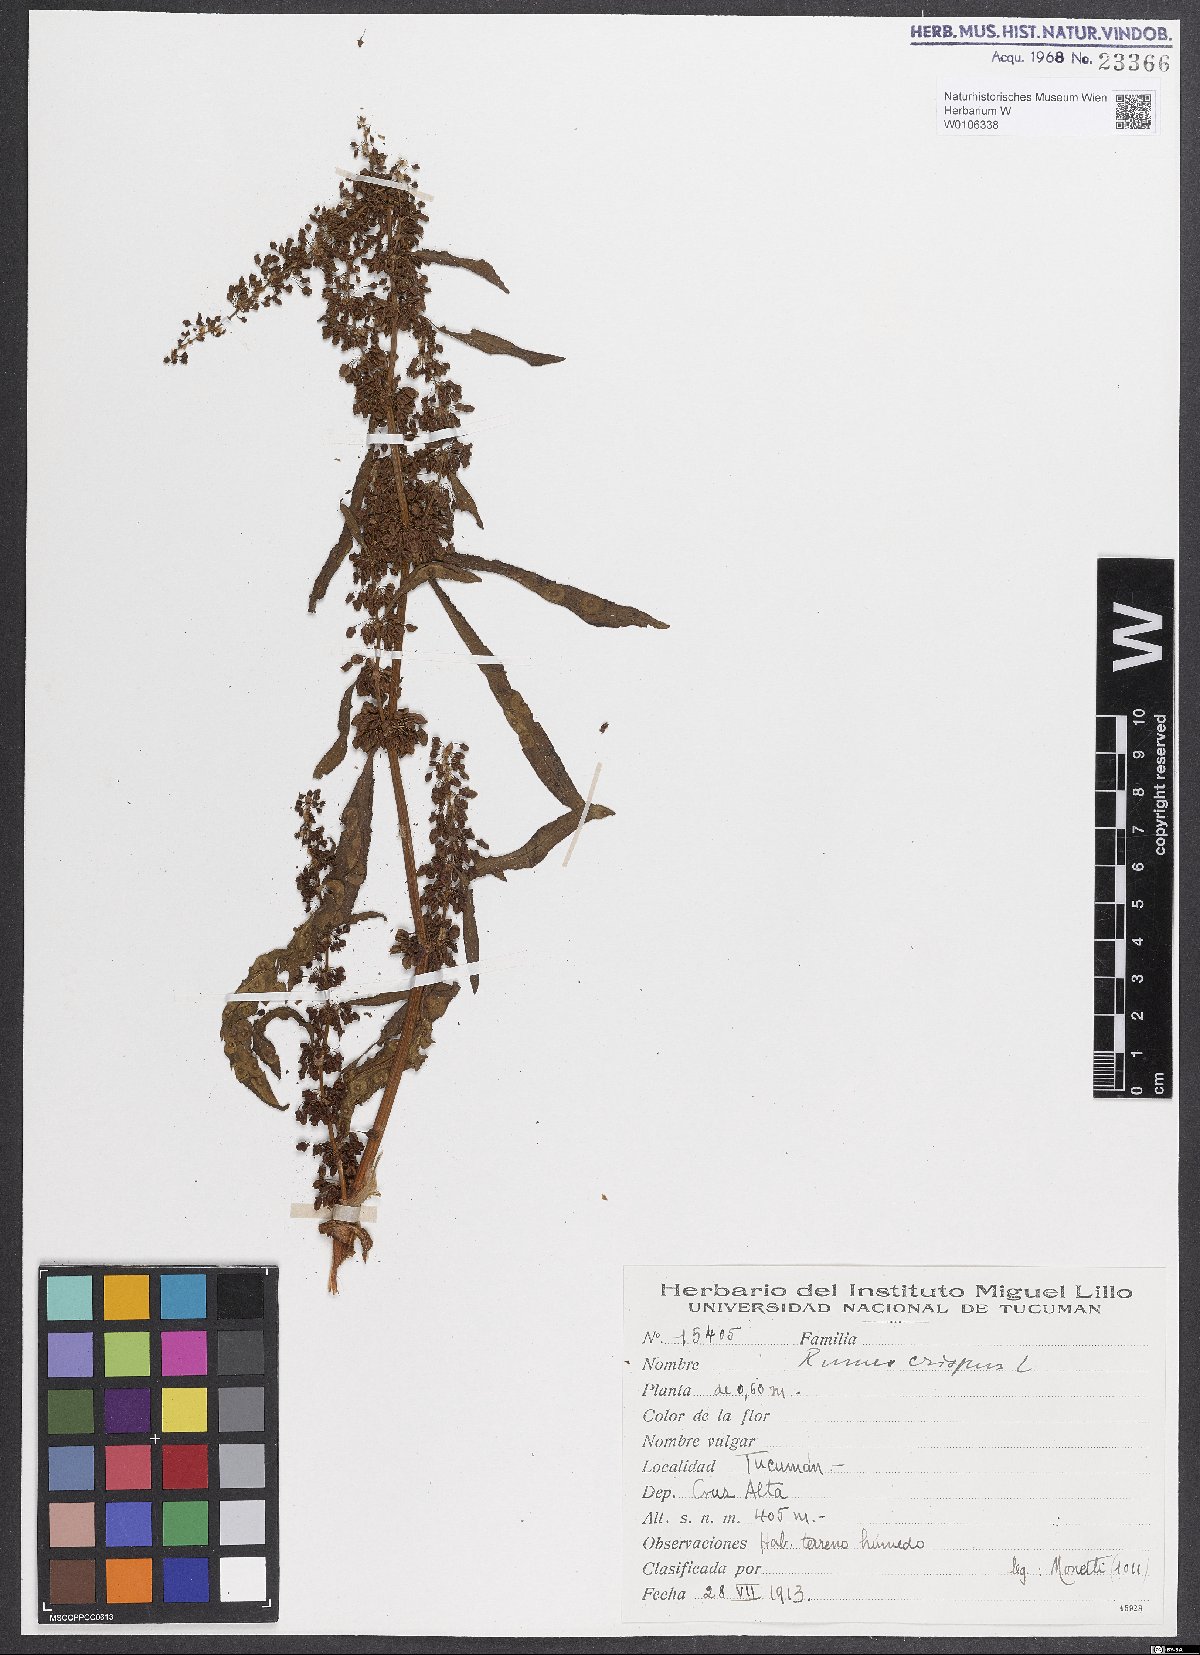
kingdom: Plantae
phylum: Tracheophyta
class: Magnoliopsida
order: Caryophyllales
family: Polygonaceae
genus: Rumex
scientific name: Rumex crispus
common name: Curled dock
